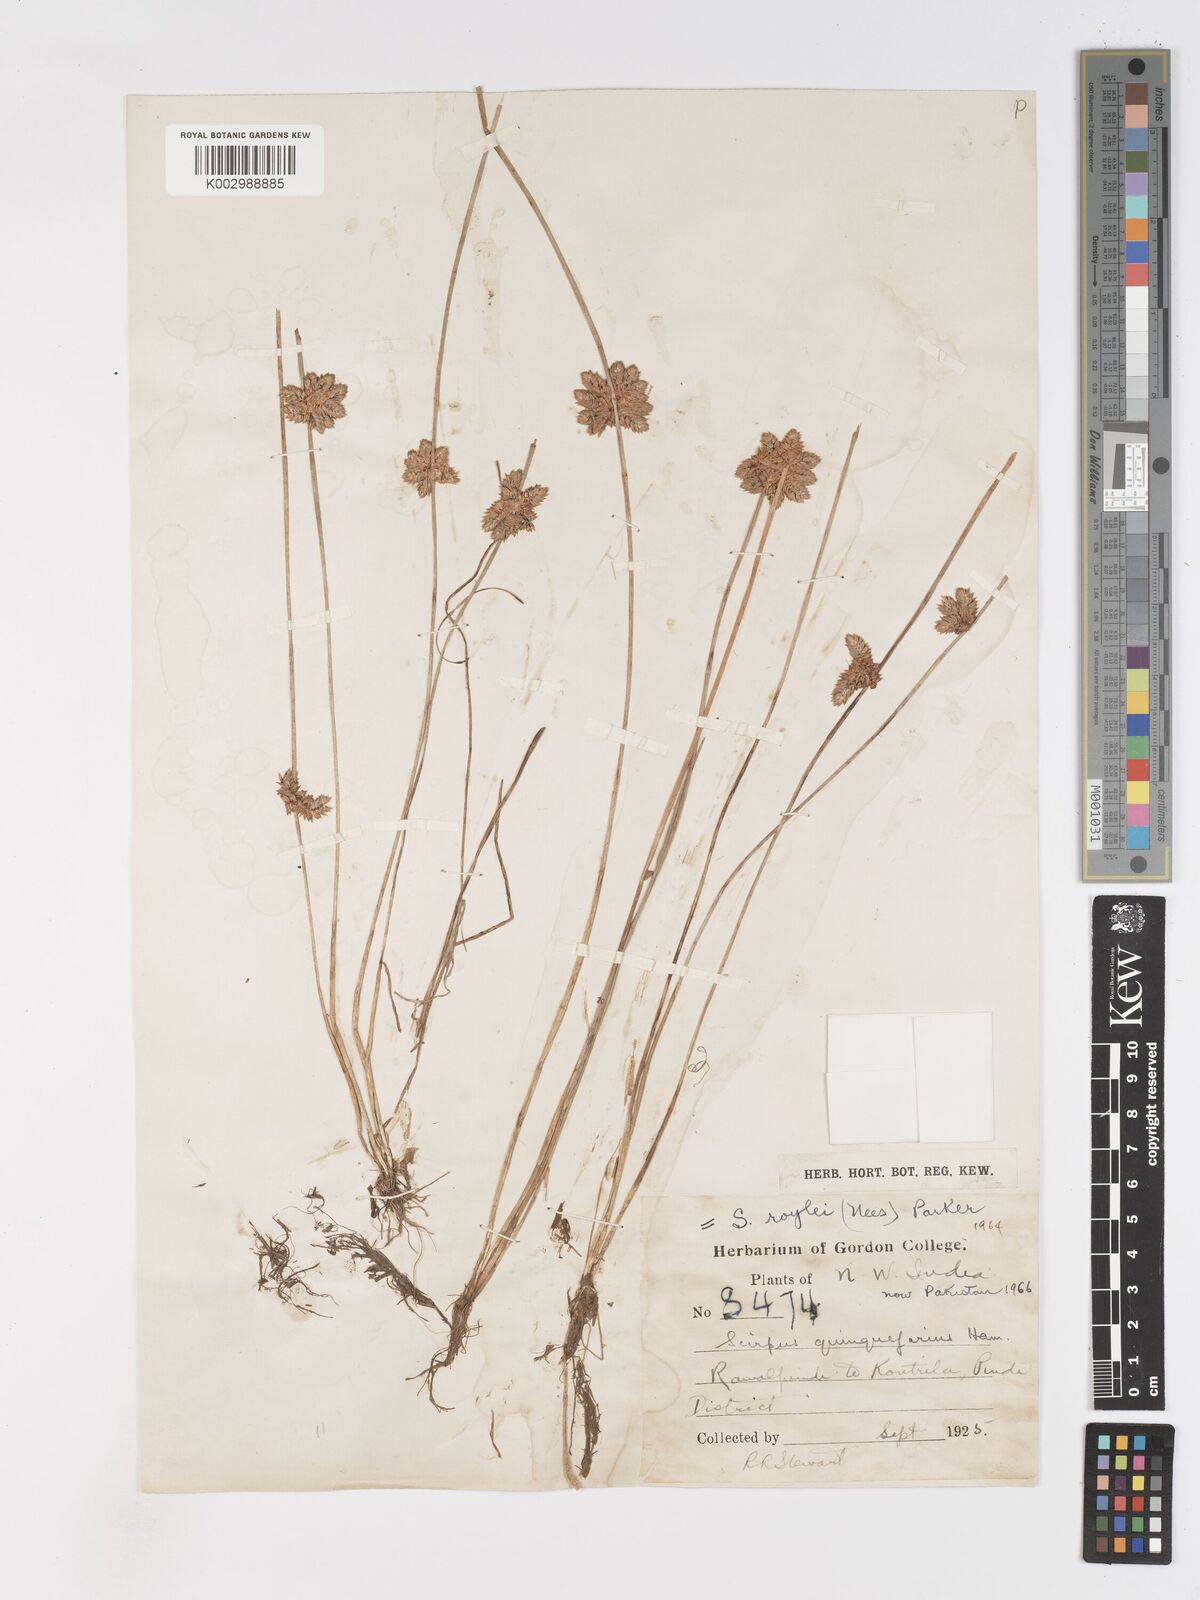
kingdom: Plantae
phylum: Tracheophyta
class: Liliopsida
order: Poales
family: Cyperaceae
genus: Schoenoplectiella
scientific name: Schoenoplectiella roylei
